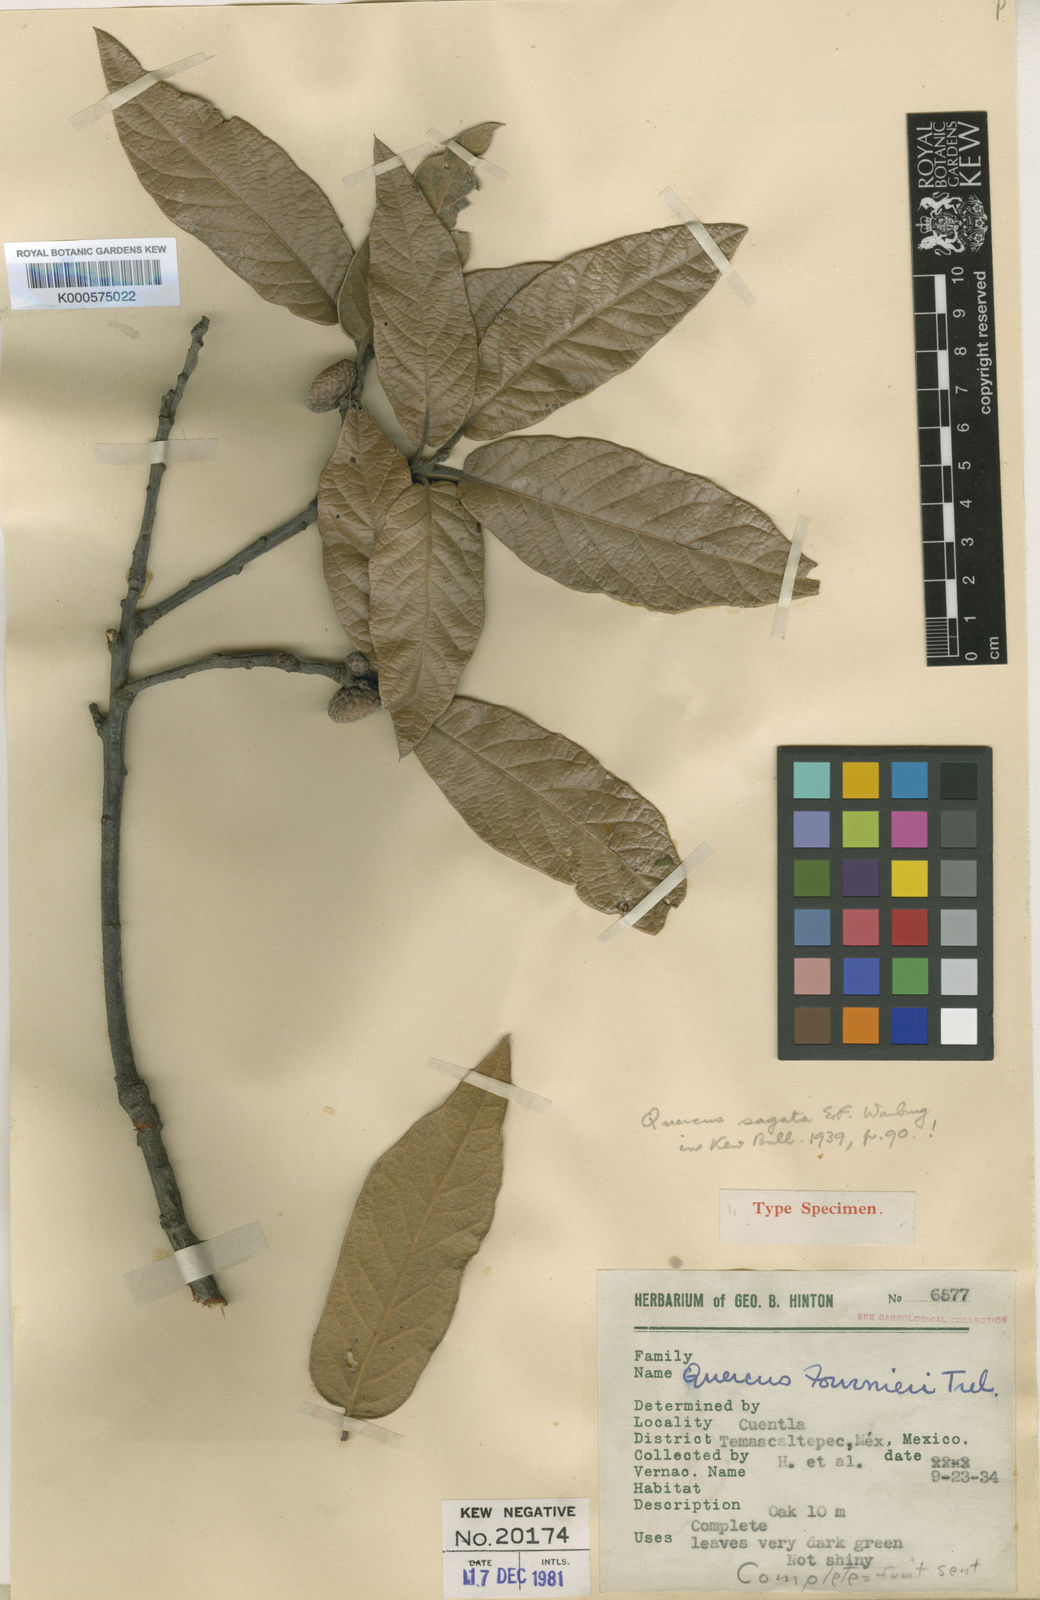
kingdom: Plantae
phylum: Tracheophyta
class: Magnoliopsida
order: Fagales
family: Fagaceae
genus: Quercus
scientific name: Quercus dysophylla
